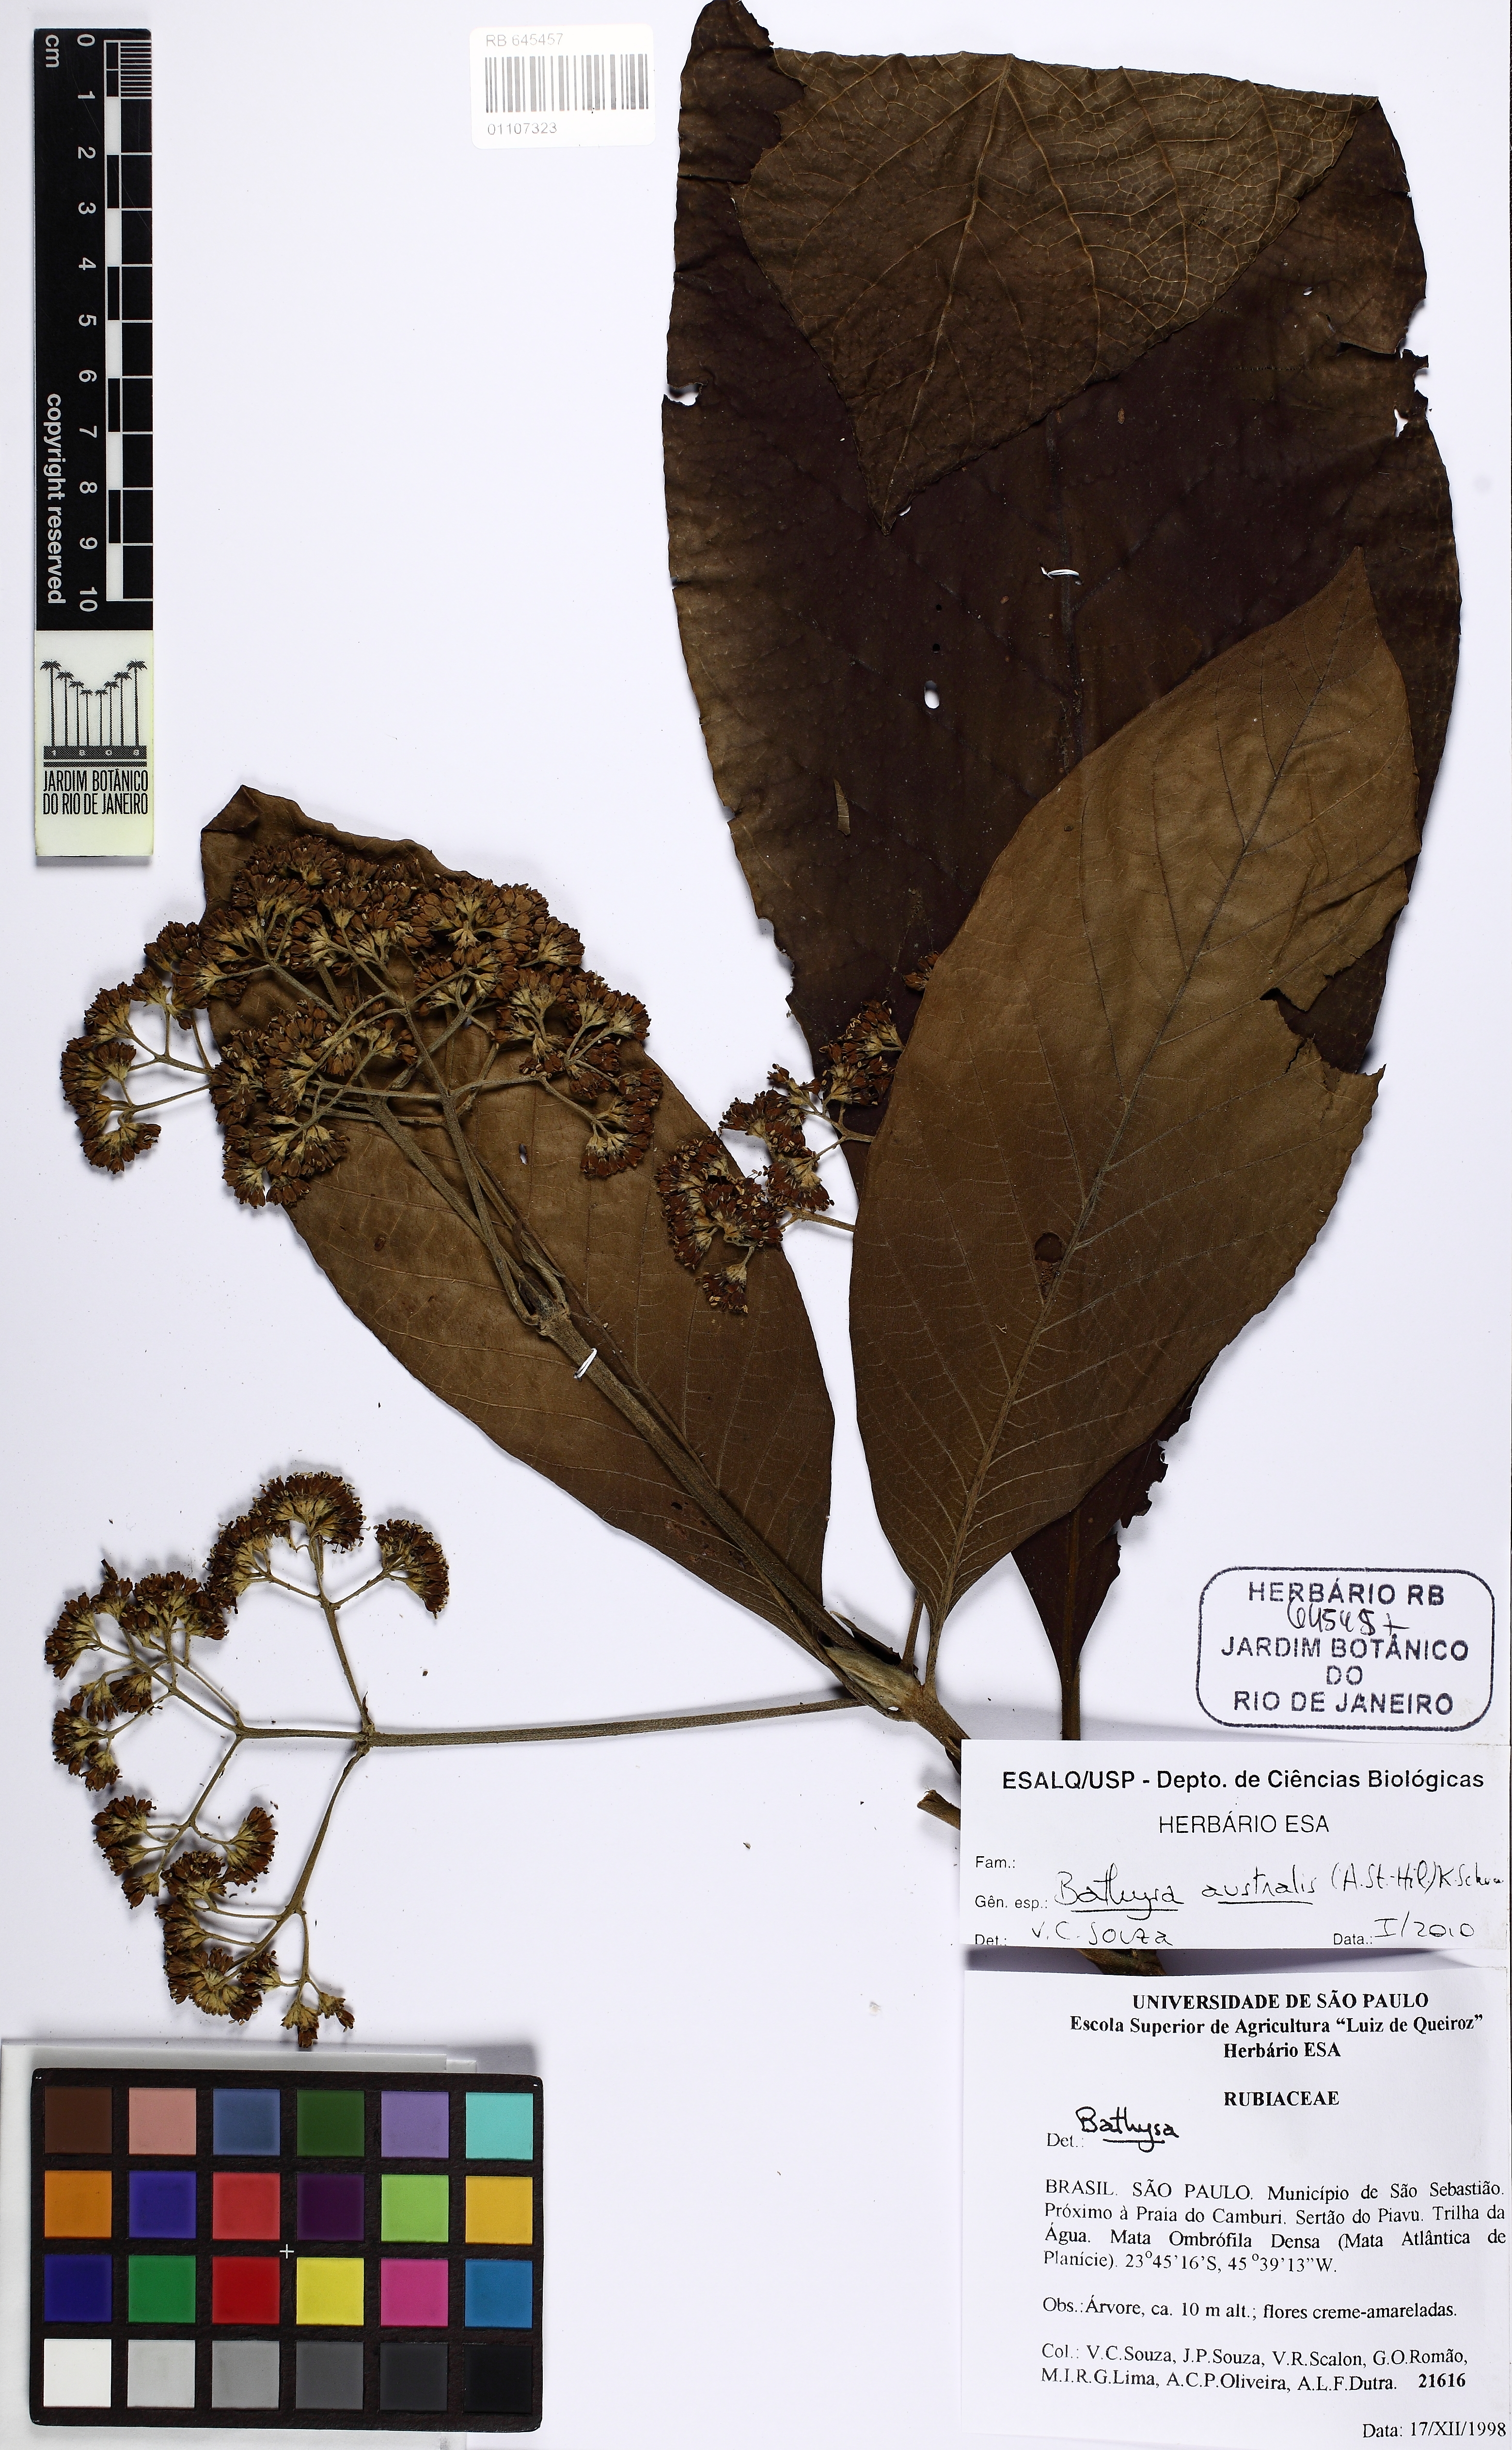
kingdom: Plantae
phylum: Tracheophyta
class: Magnoliopsida
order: Gentianales
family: Rubiaceae
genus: Bathysa
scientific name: Bathysa australis
